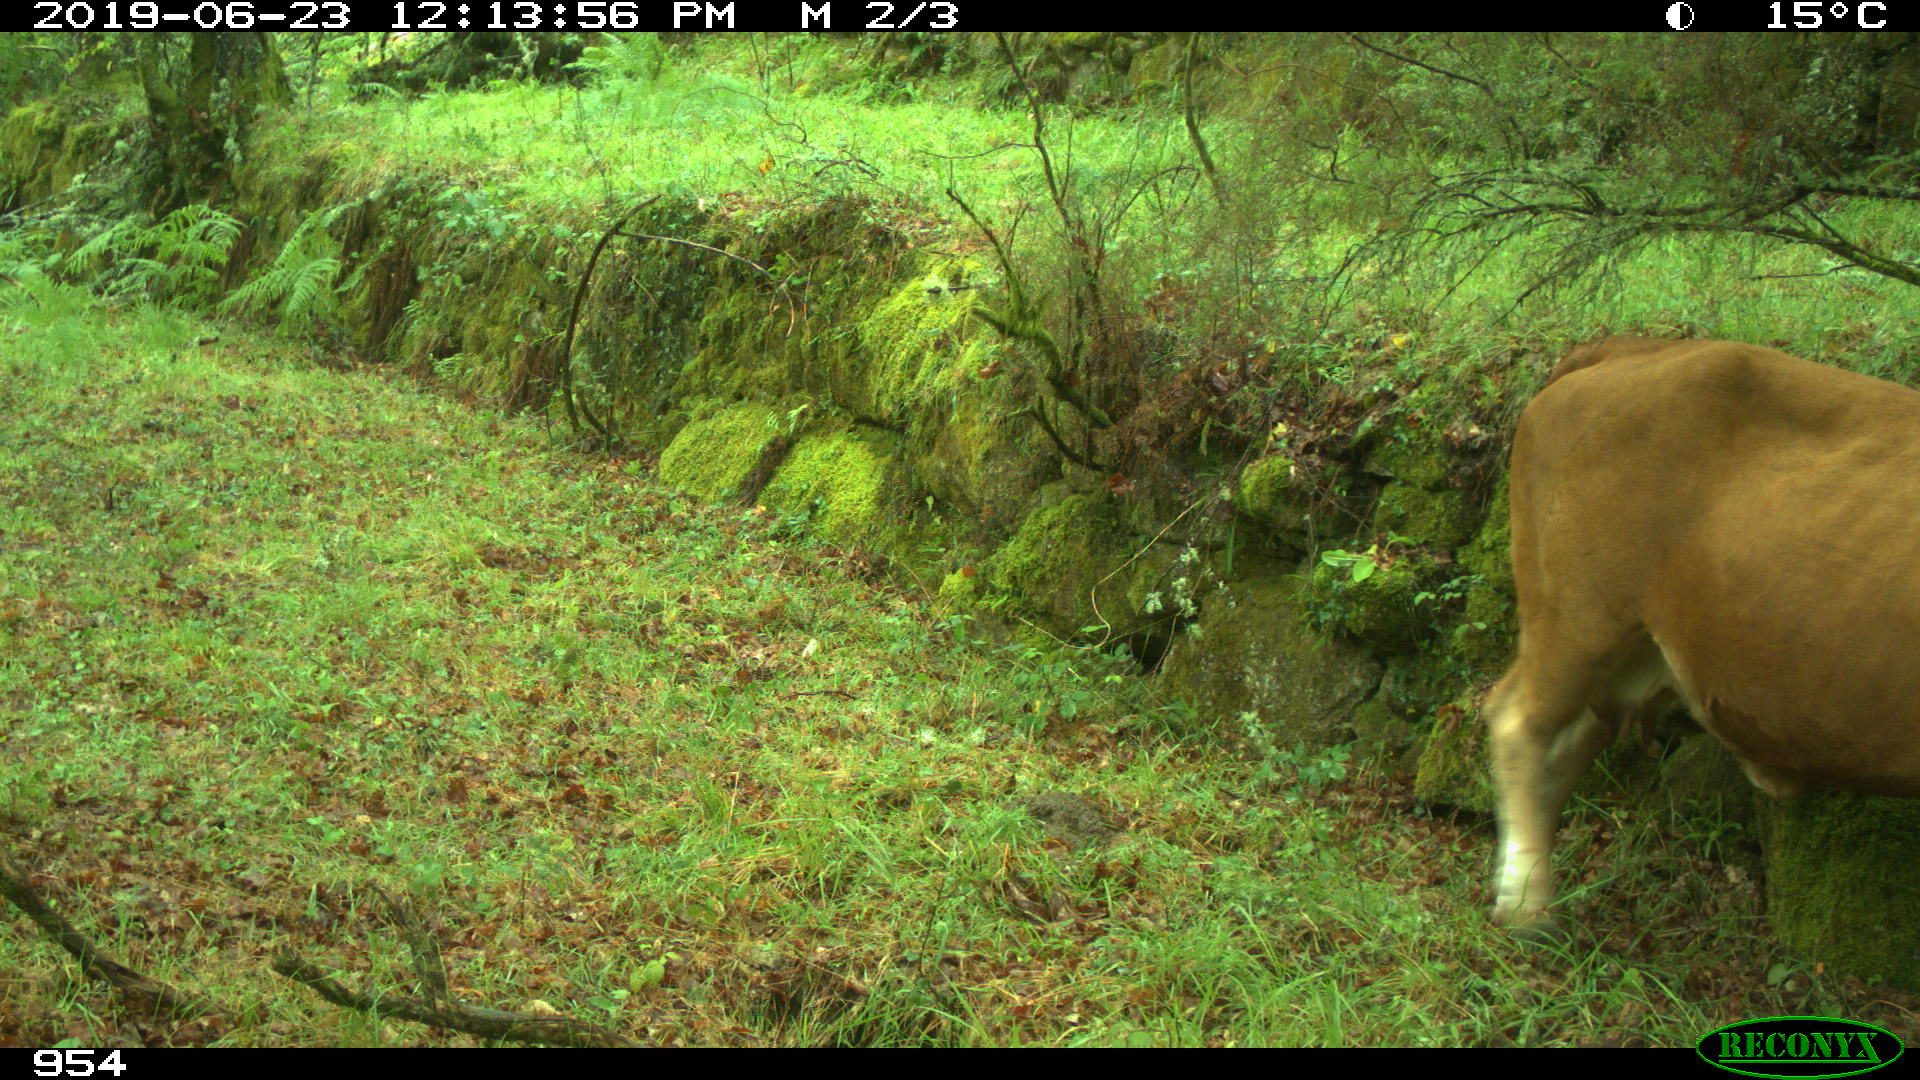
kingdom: Animalia
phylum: Chordata
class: Mammalia
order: Artiodactyla
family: Bovidae
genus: Bos
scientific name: Bos taurus
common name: Domesticated cattle
